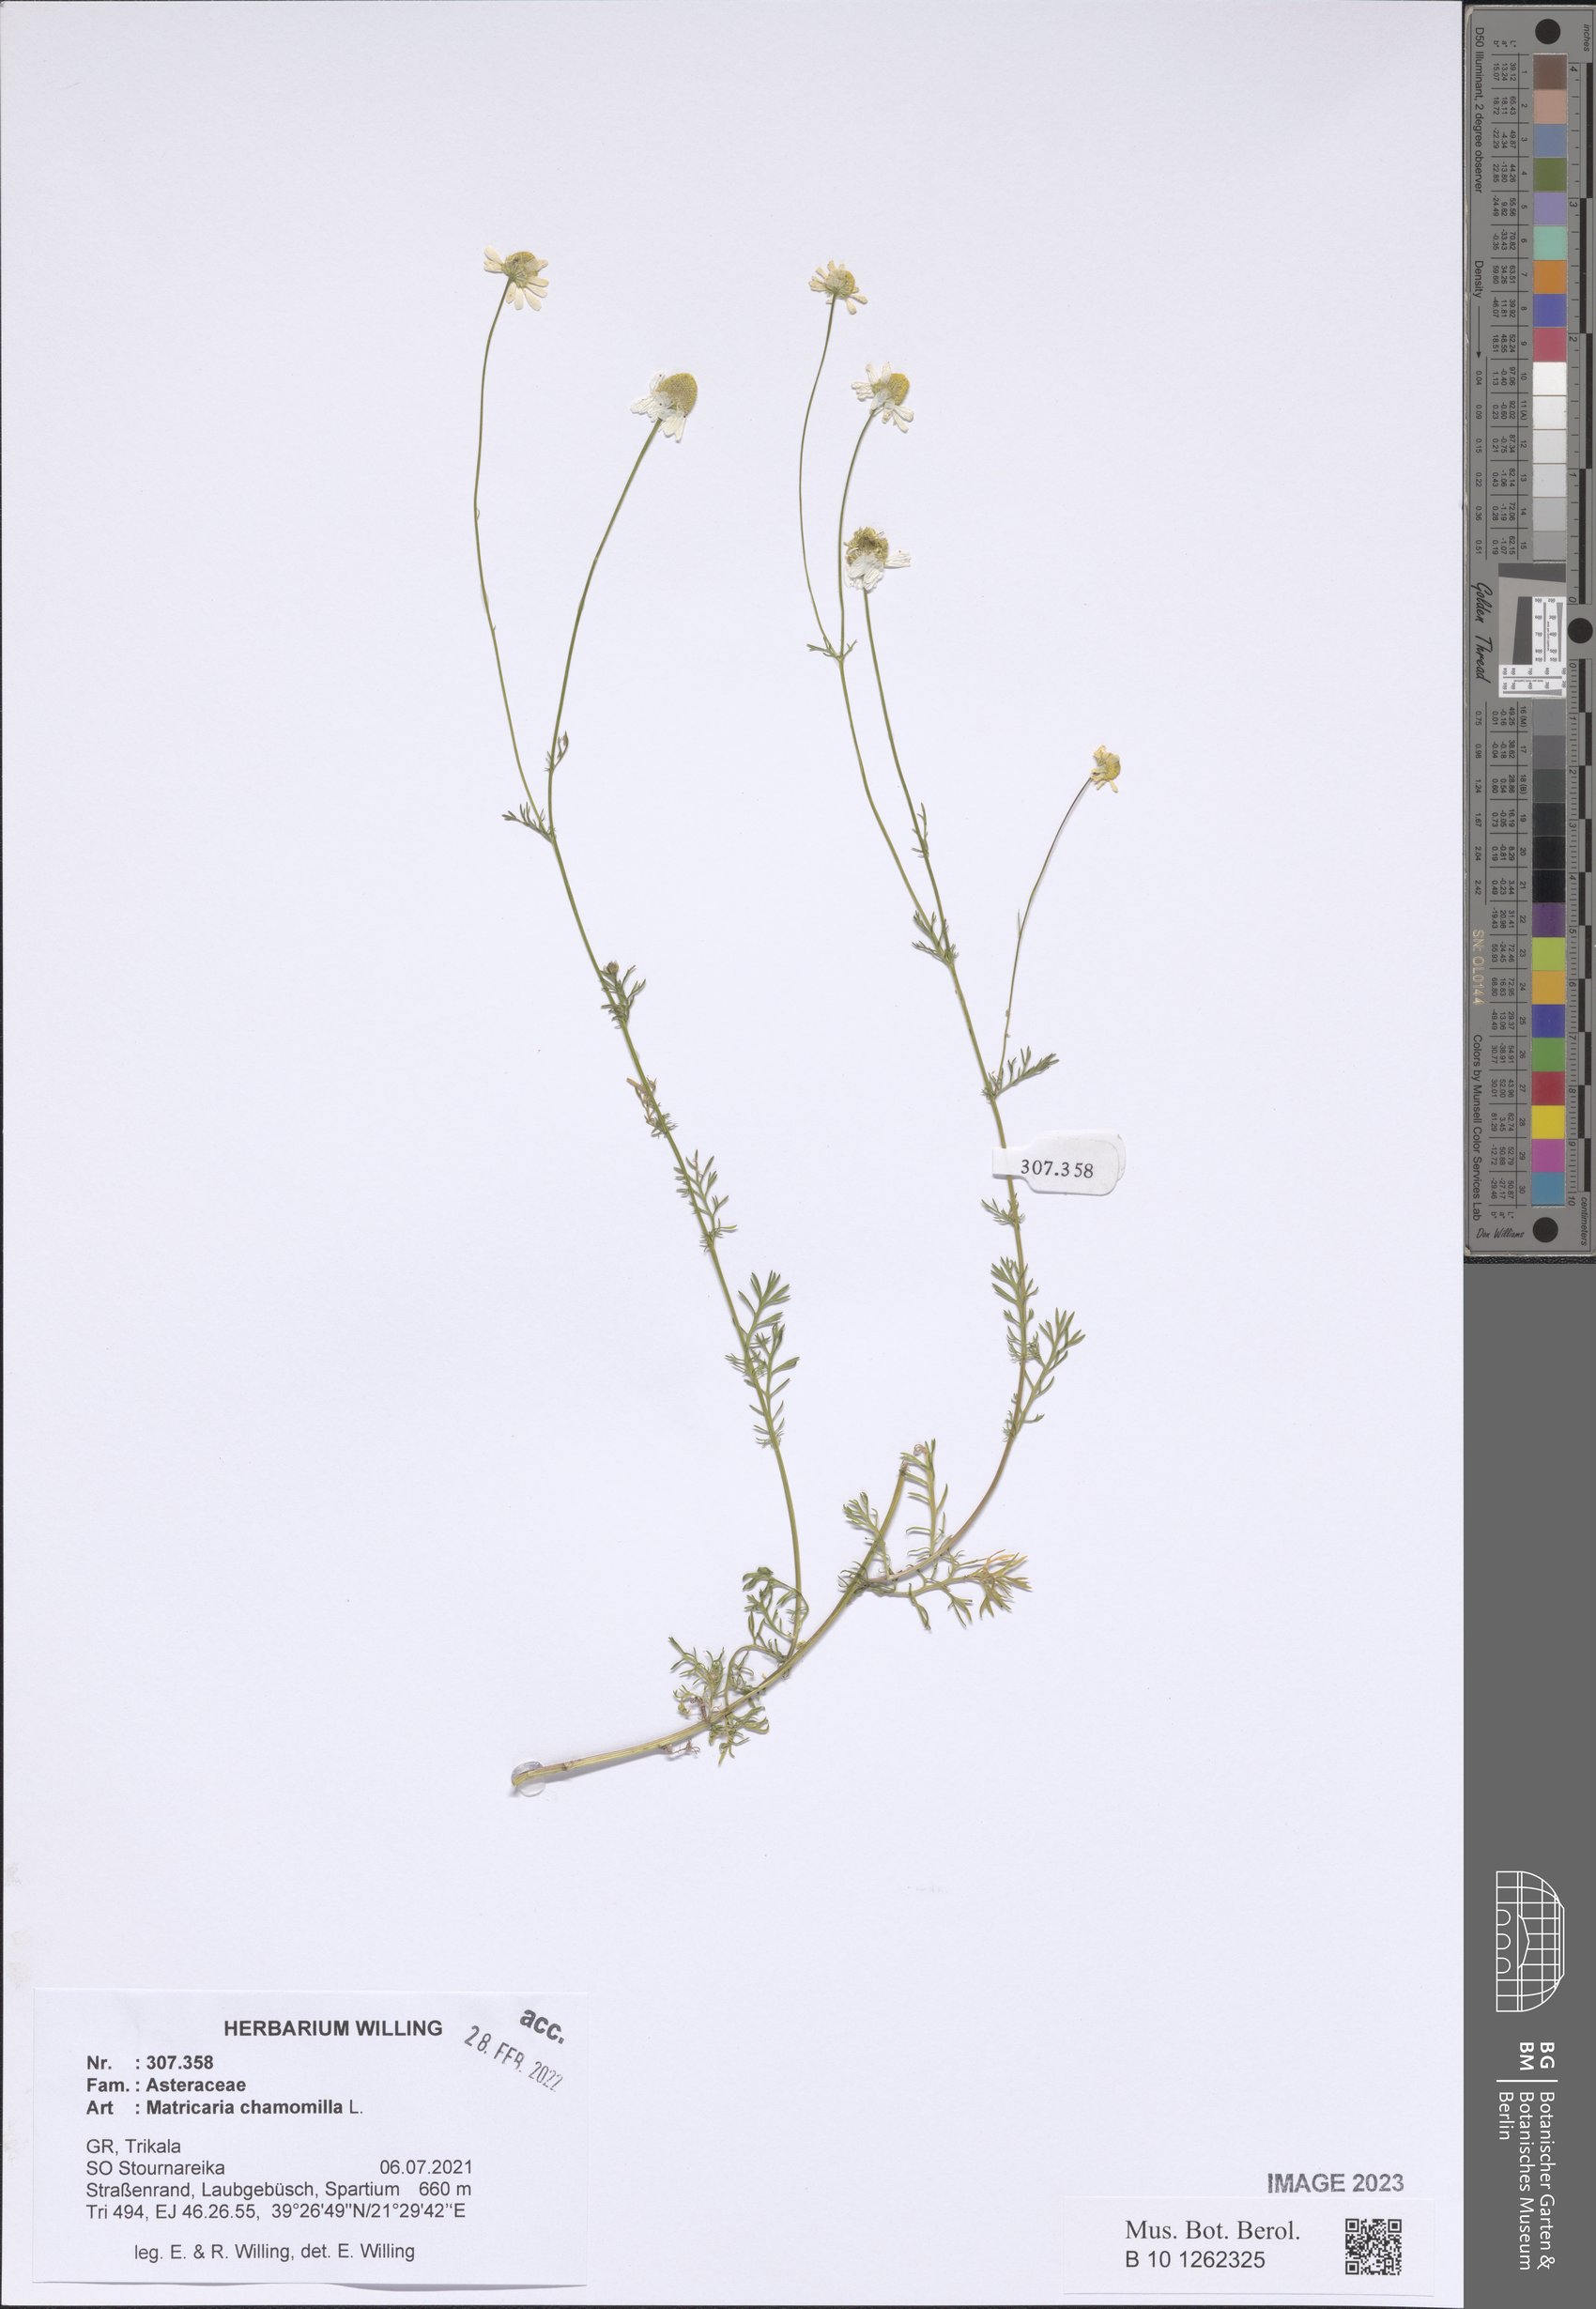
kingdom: Plantae
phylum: Tracheophyta
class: Magnoliopsida
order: Asterales
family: Asteraceae
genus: Matricaria
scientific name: Matricaria chamomilla
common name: Scented mayweed
